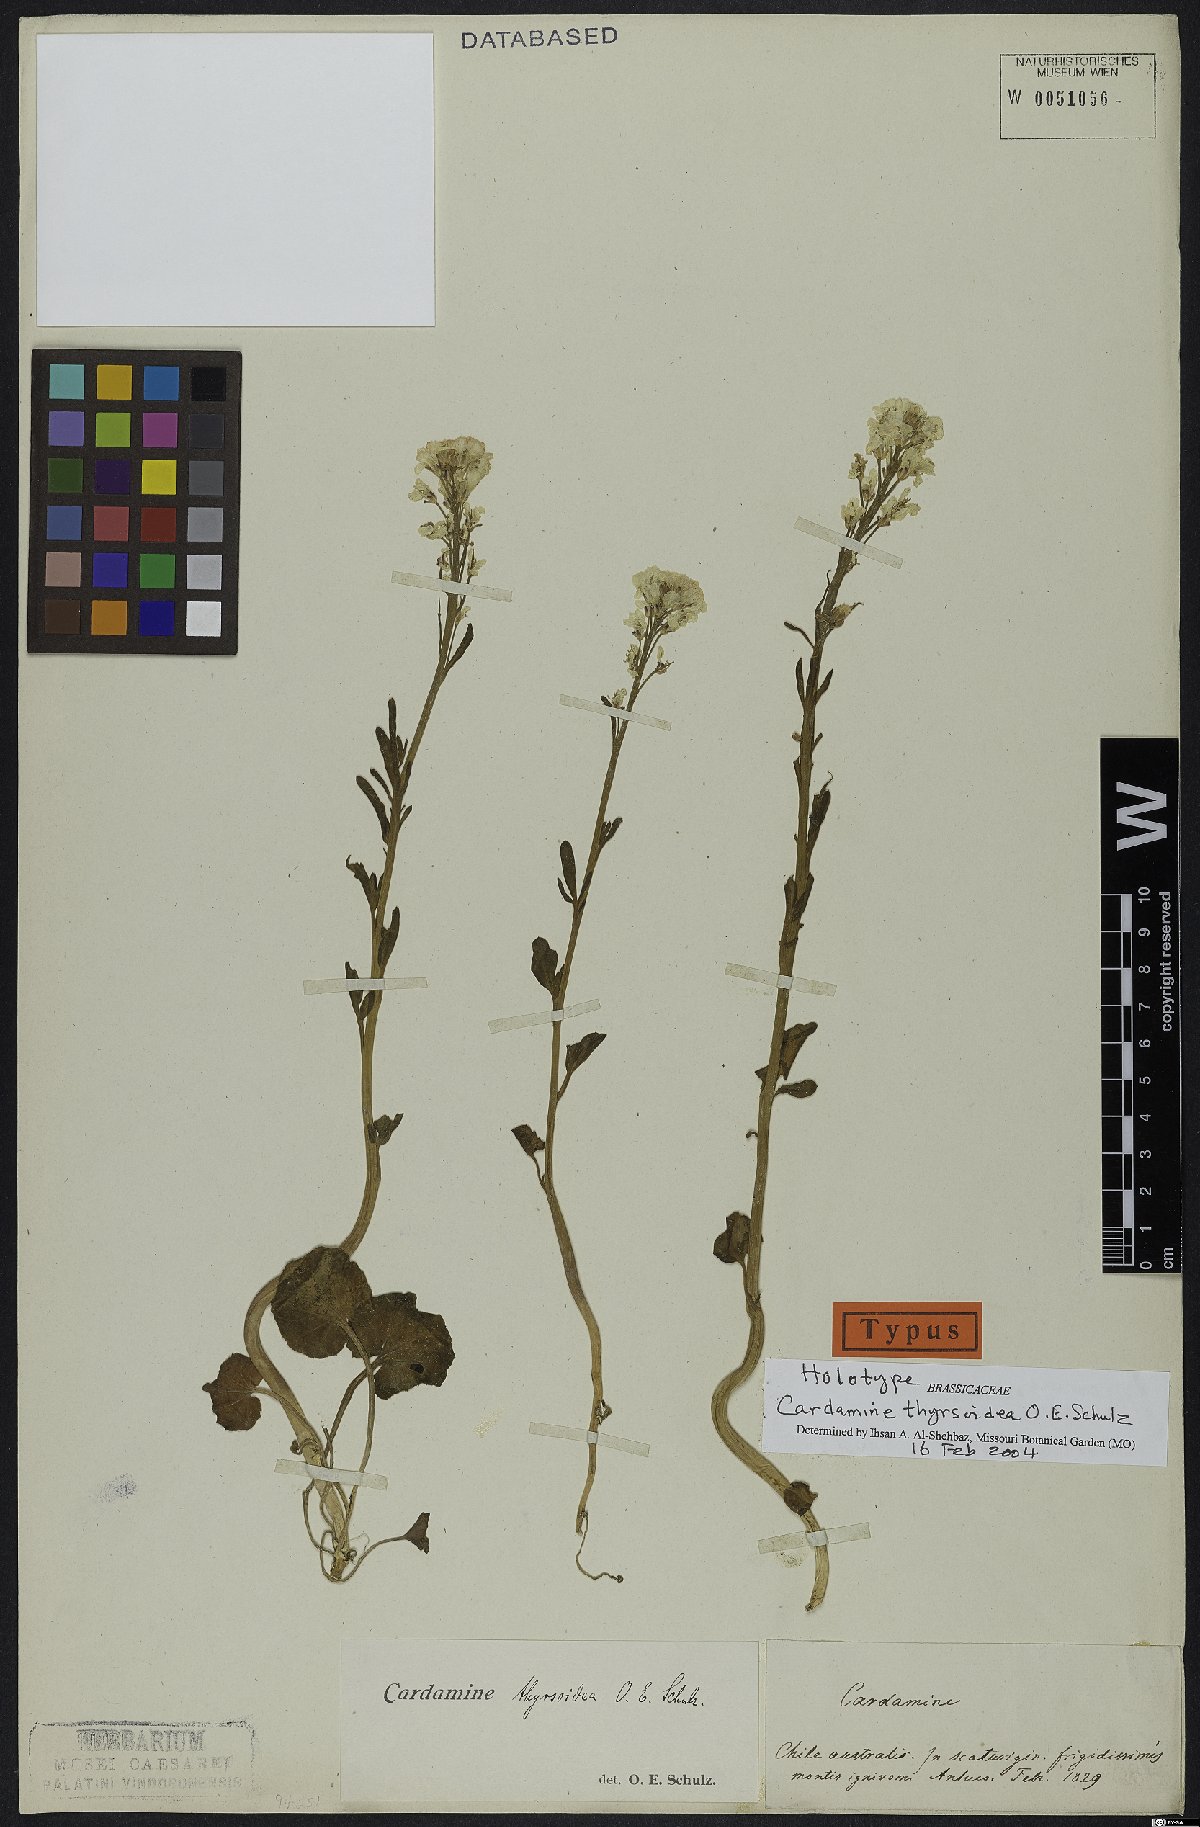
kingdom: Plantae
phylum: Tracheophyta
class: Magnoliopsida
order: Brassicales
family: Brassicaceae
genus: Cardamine
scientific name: Cardamine thyrsoidea
